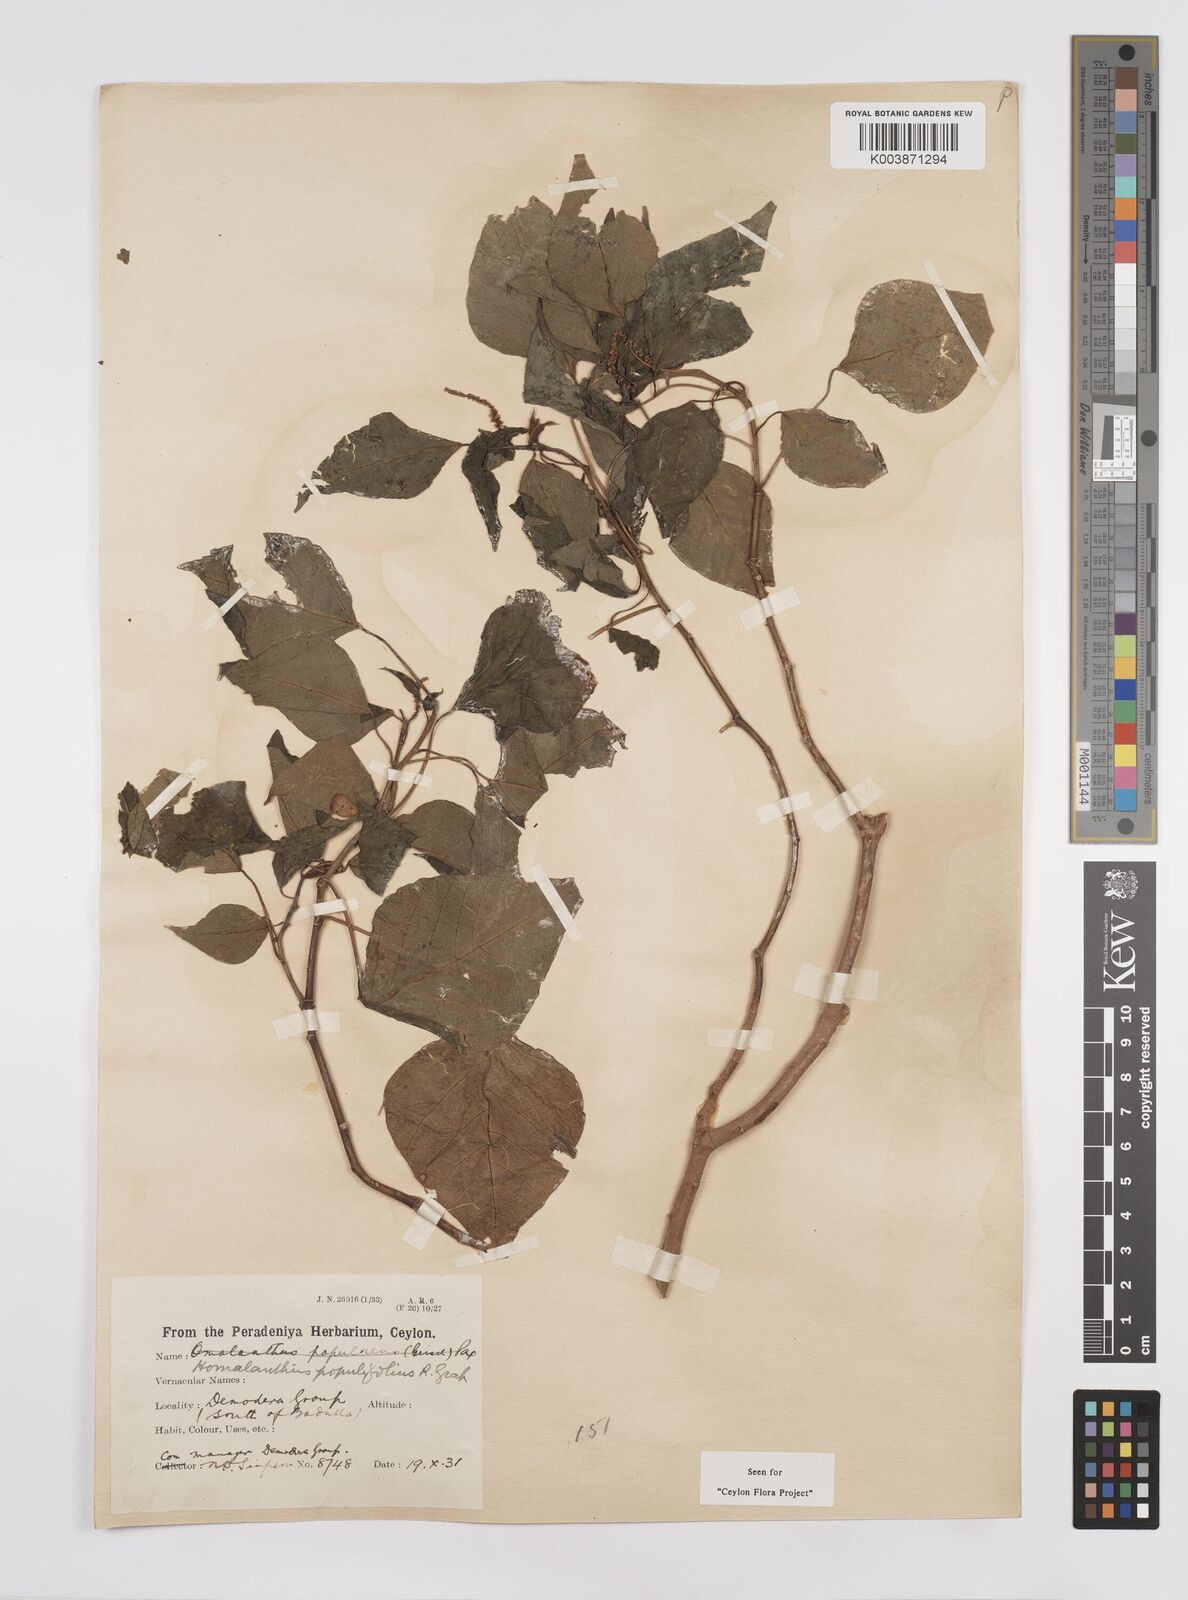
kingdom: Plantae
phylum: Tracheophyta
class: Magnoliopsida
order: Malpighiales
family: Euphorbiaceae
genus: Homalanthus
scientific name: Homalanthus populneus
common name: Spurge
